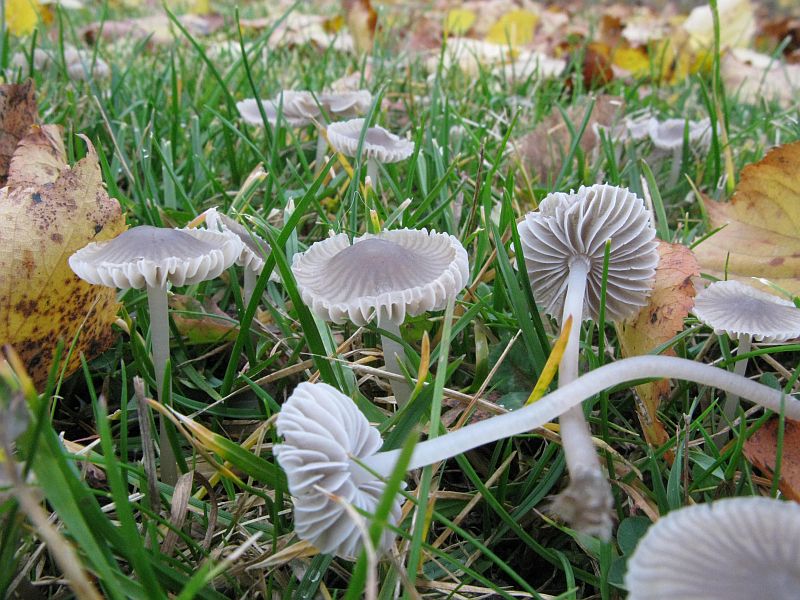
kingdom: Fungi
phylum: Basidiomycota
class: Agaricomycetes
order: Agaricales
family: Mycenaceae
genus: Mycena
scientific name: Mycena aetites
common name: plæne-huesvamp
